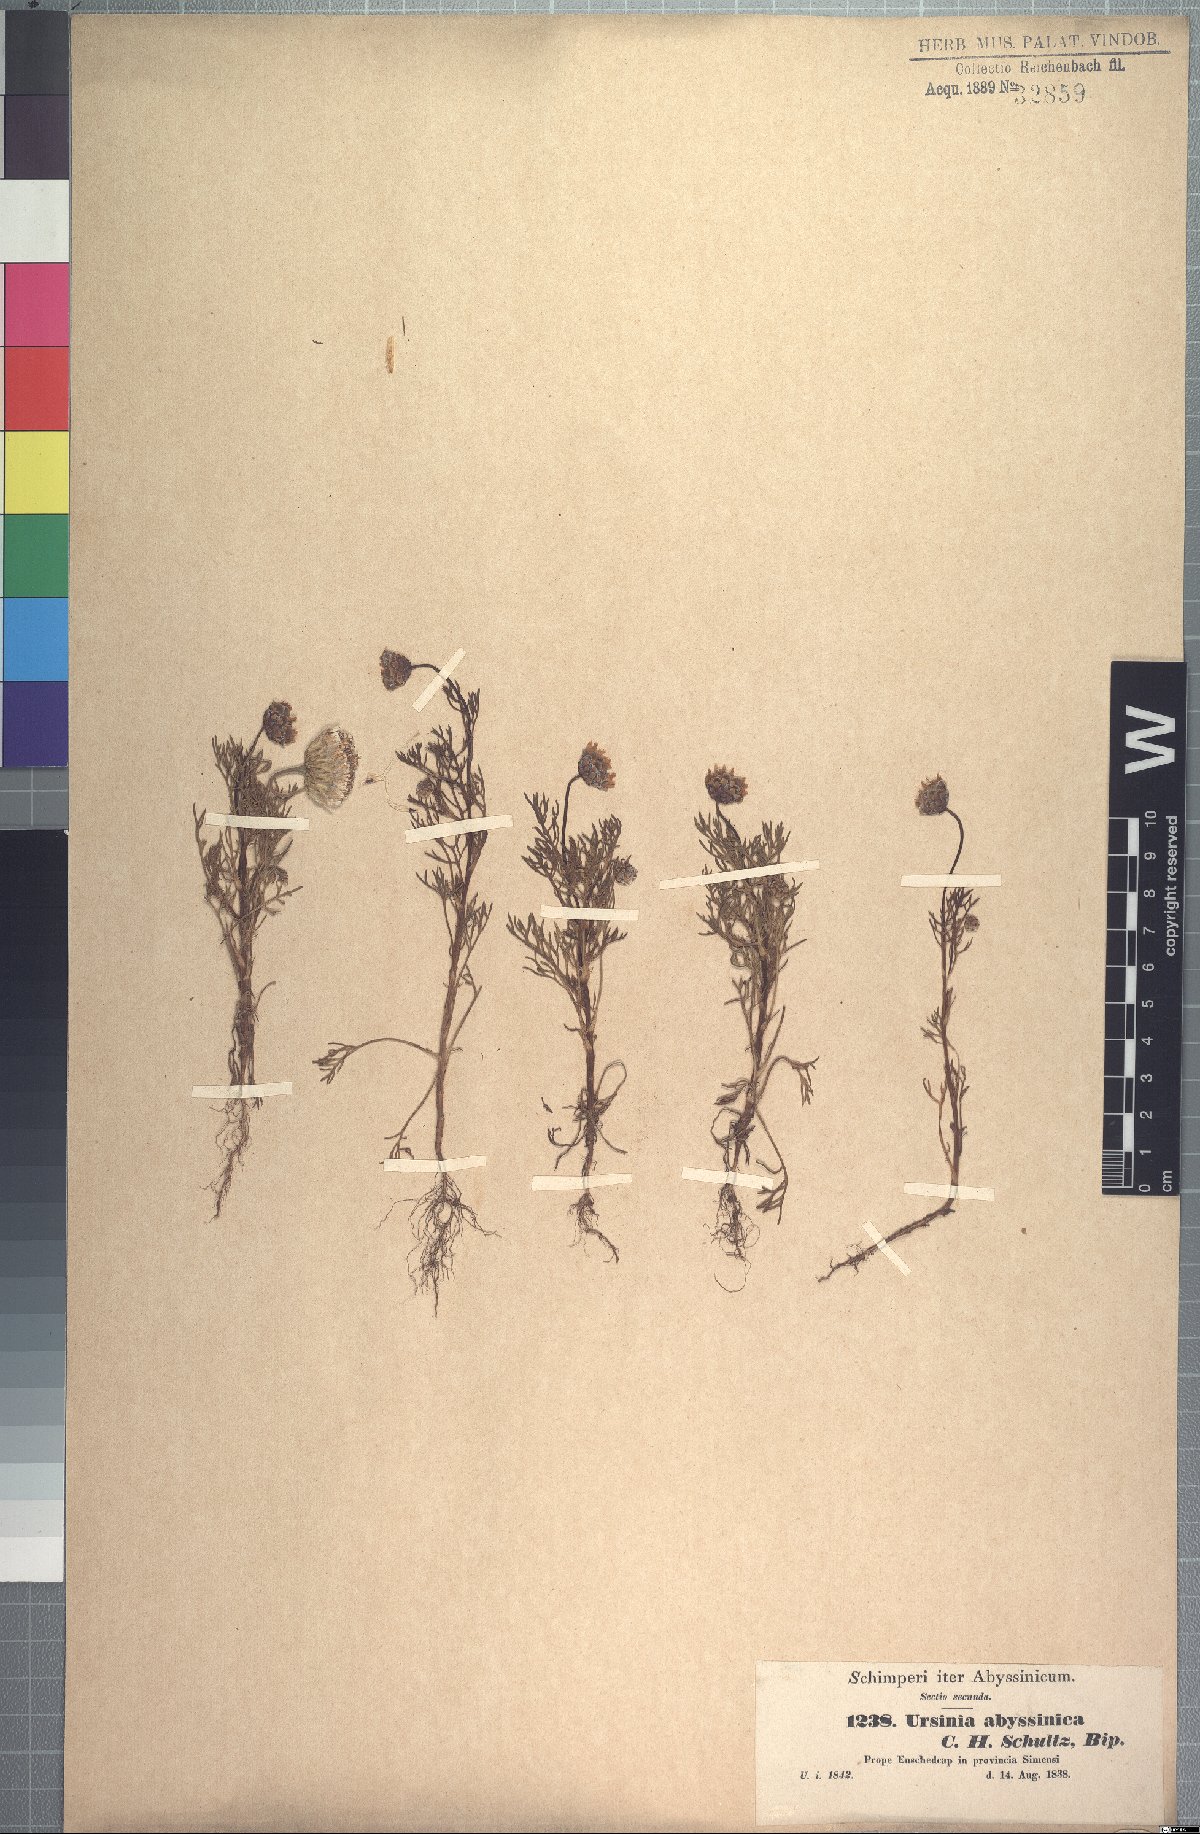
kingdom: Plantae
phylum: Tracheophyta
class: Magnoliopsida
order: Asterales
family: Asteraceae
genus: Ursinia
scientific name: Ursinia nana
